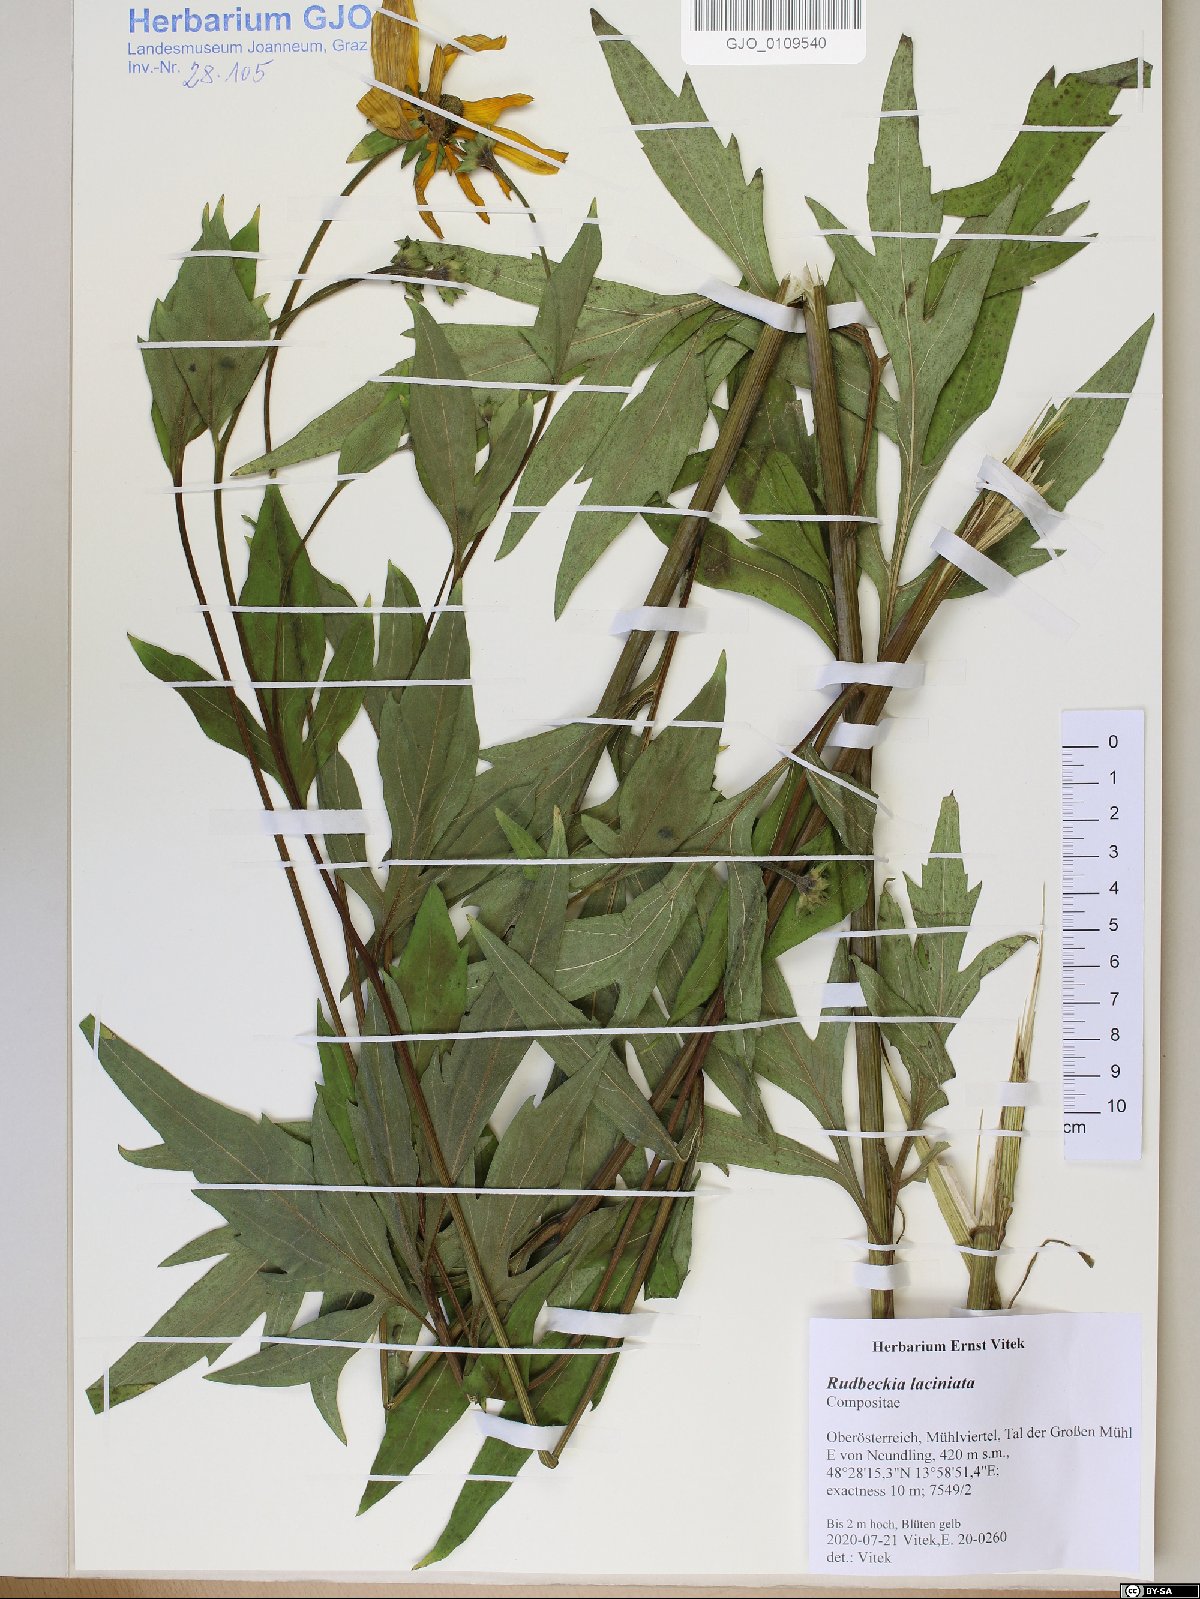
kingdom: Plantae
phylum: Tracheophyta
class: Magnoliopsida
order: Asterales
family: Asteraceae
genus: Rudbeckia
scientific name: Rudbeckia laciniata
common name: Coneflower
